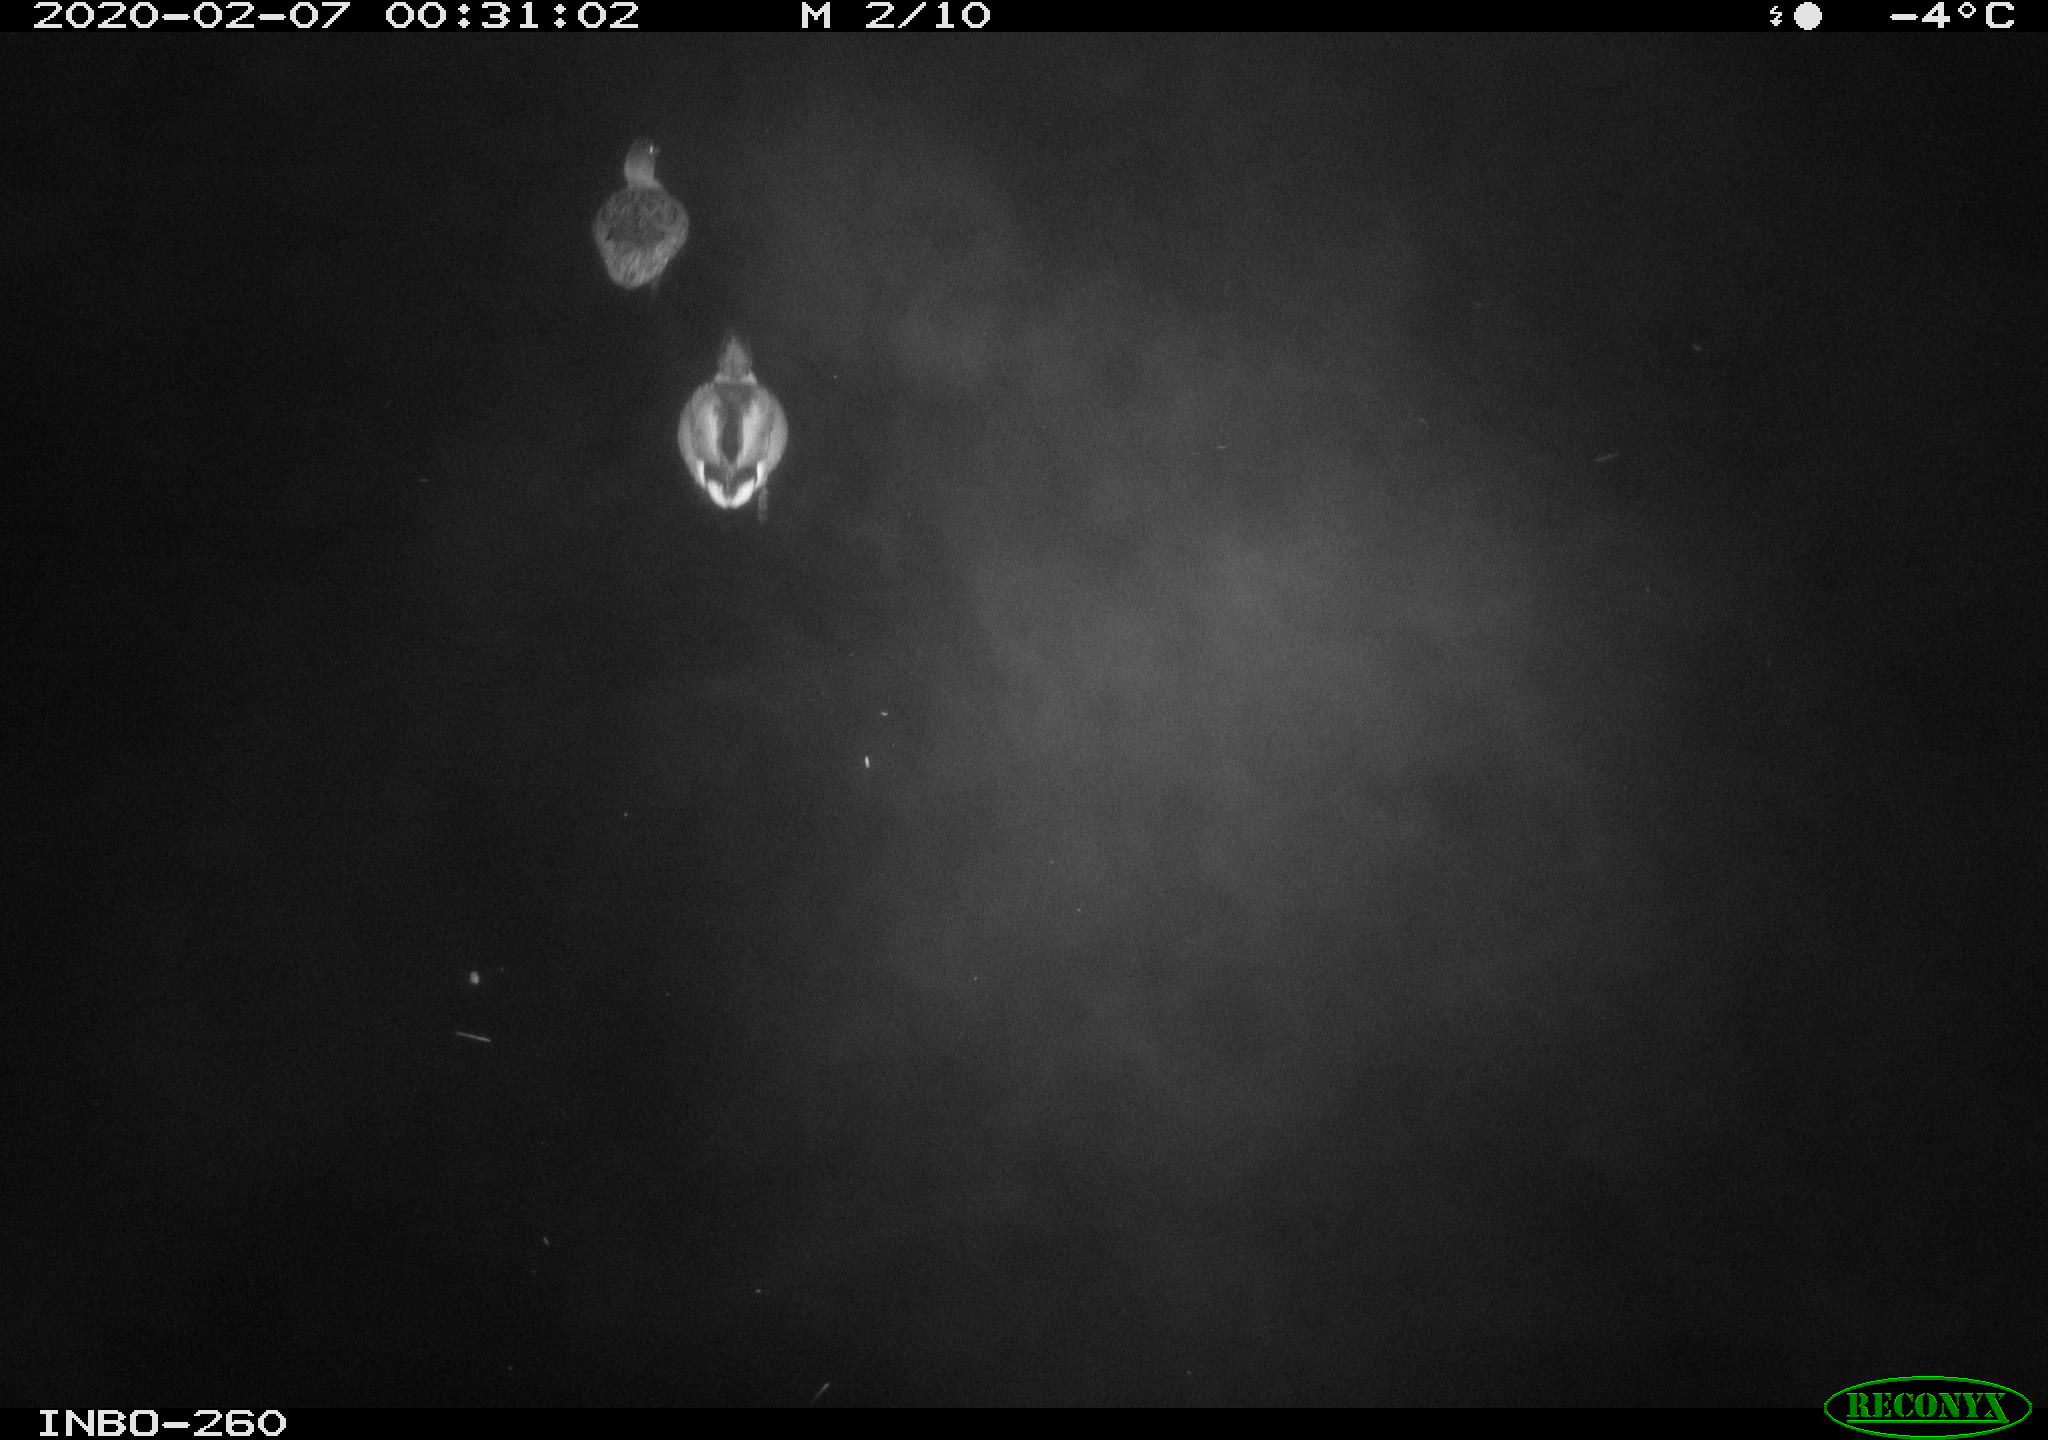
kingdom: Animalia
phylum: Chordata
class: Aves
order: Anseriformes
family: Anatidae
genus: Anas
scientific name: Anas platyrhynchos
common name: Mallard
